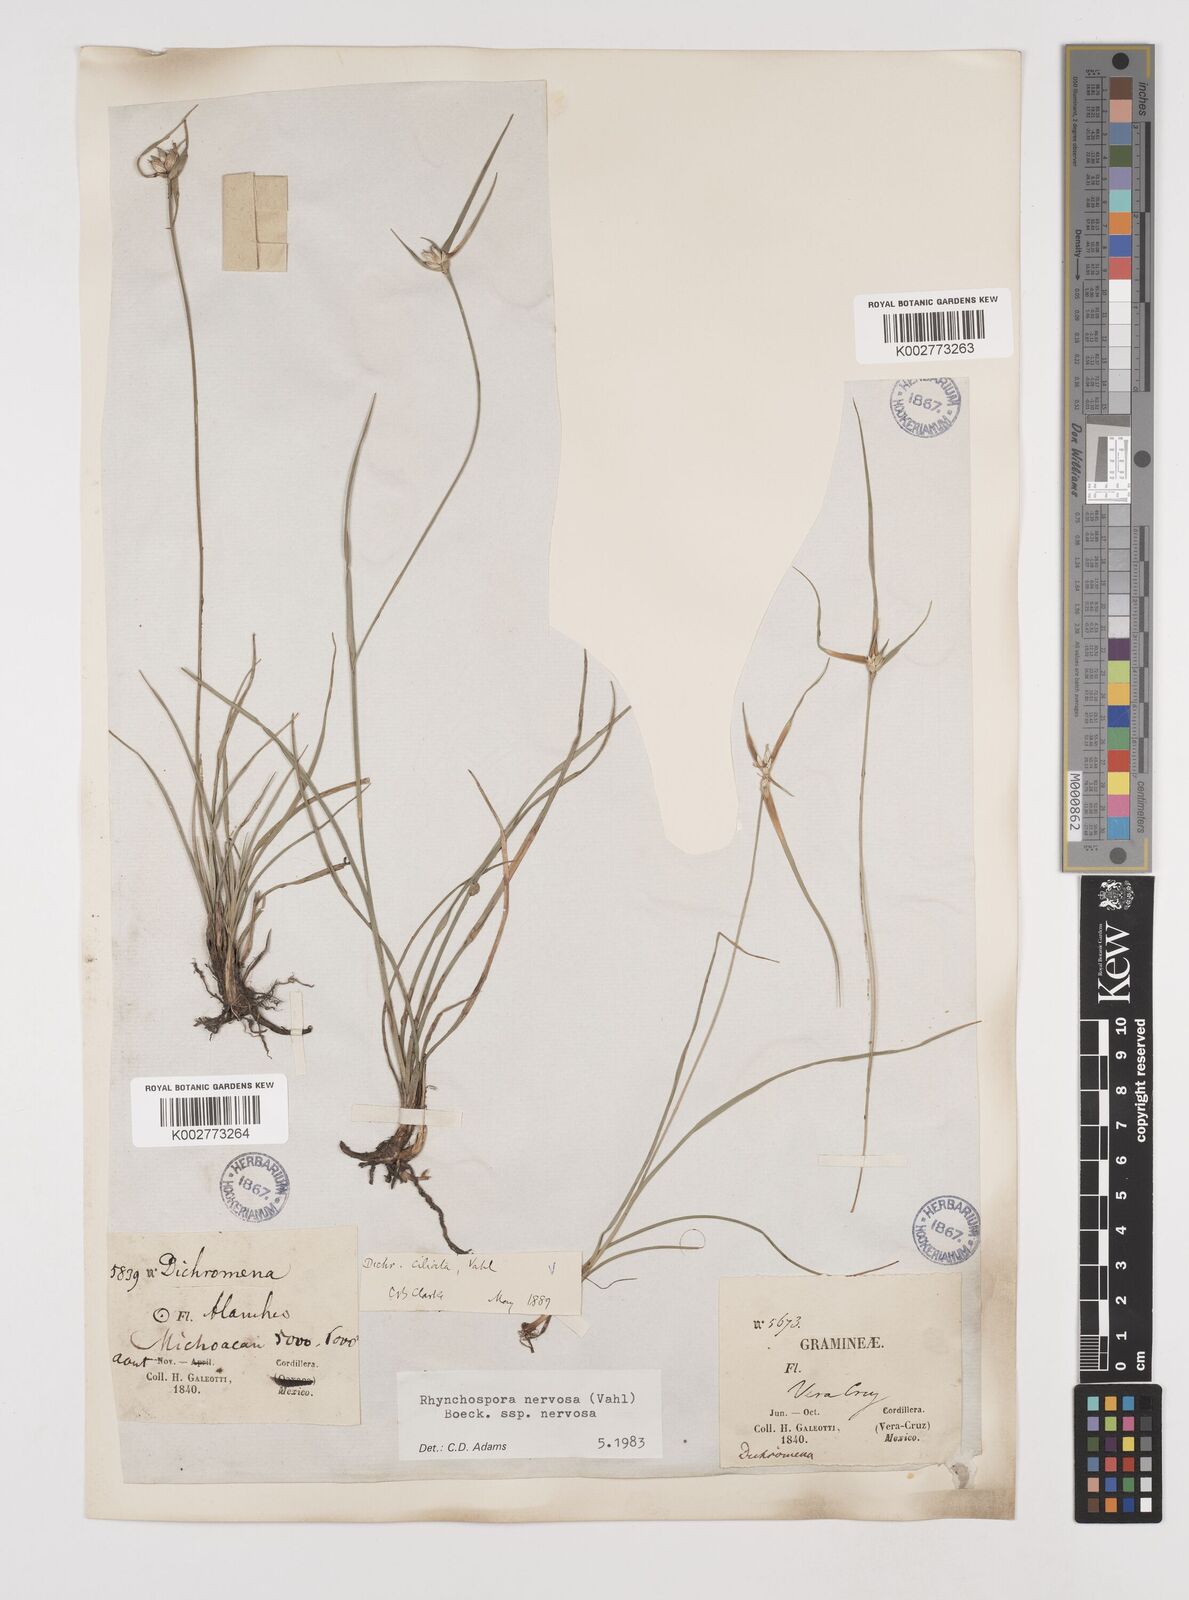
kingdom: Plantae
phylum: Tracheophyta
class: Liliopsida
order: Poales
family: Cyperaceae
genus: Rhynchospora
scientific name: Rhynchospora nervosa
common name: Star sedge
